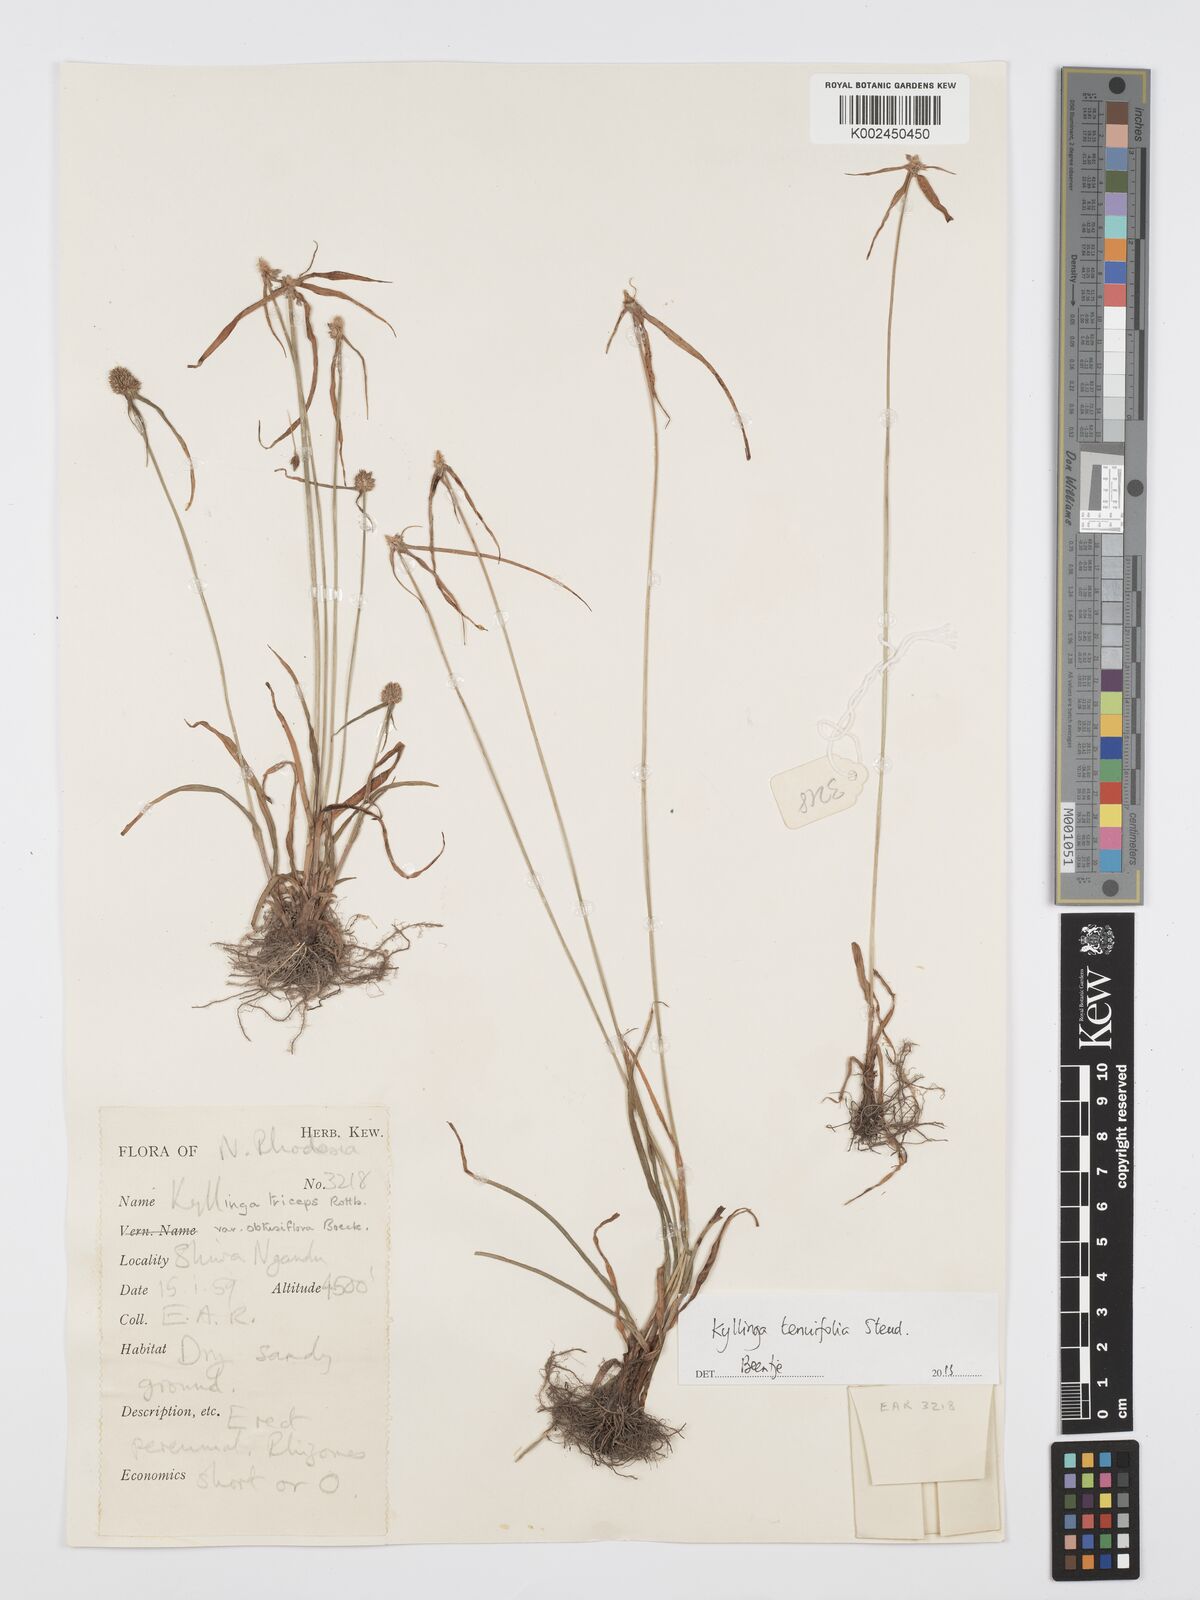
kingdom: Plantae
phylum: Tracheophyta
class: Liliopsida
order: Poales
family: Cyperaceae
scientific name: Cyperaceae
